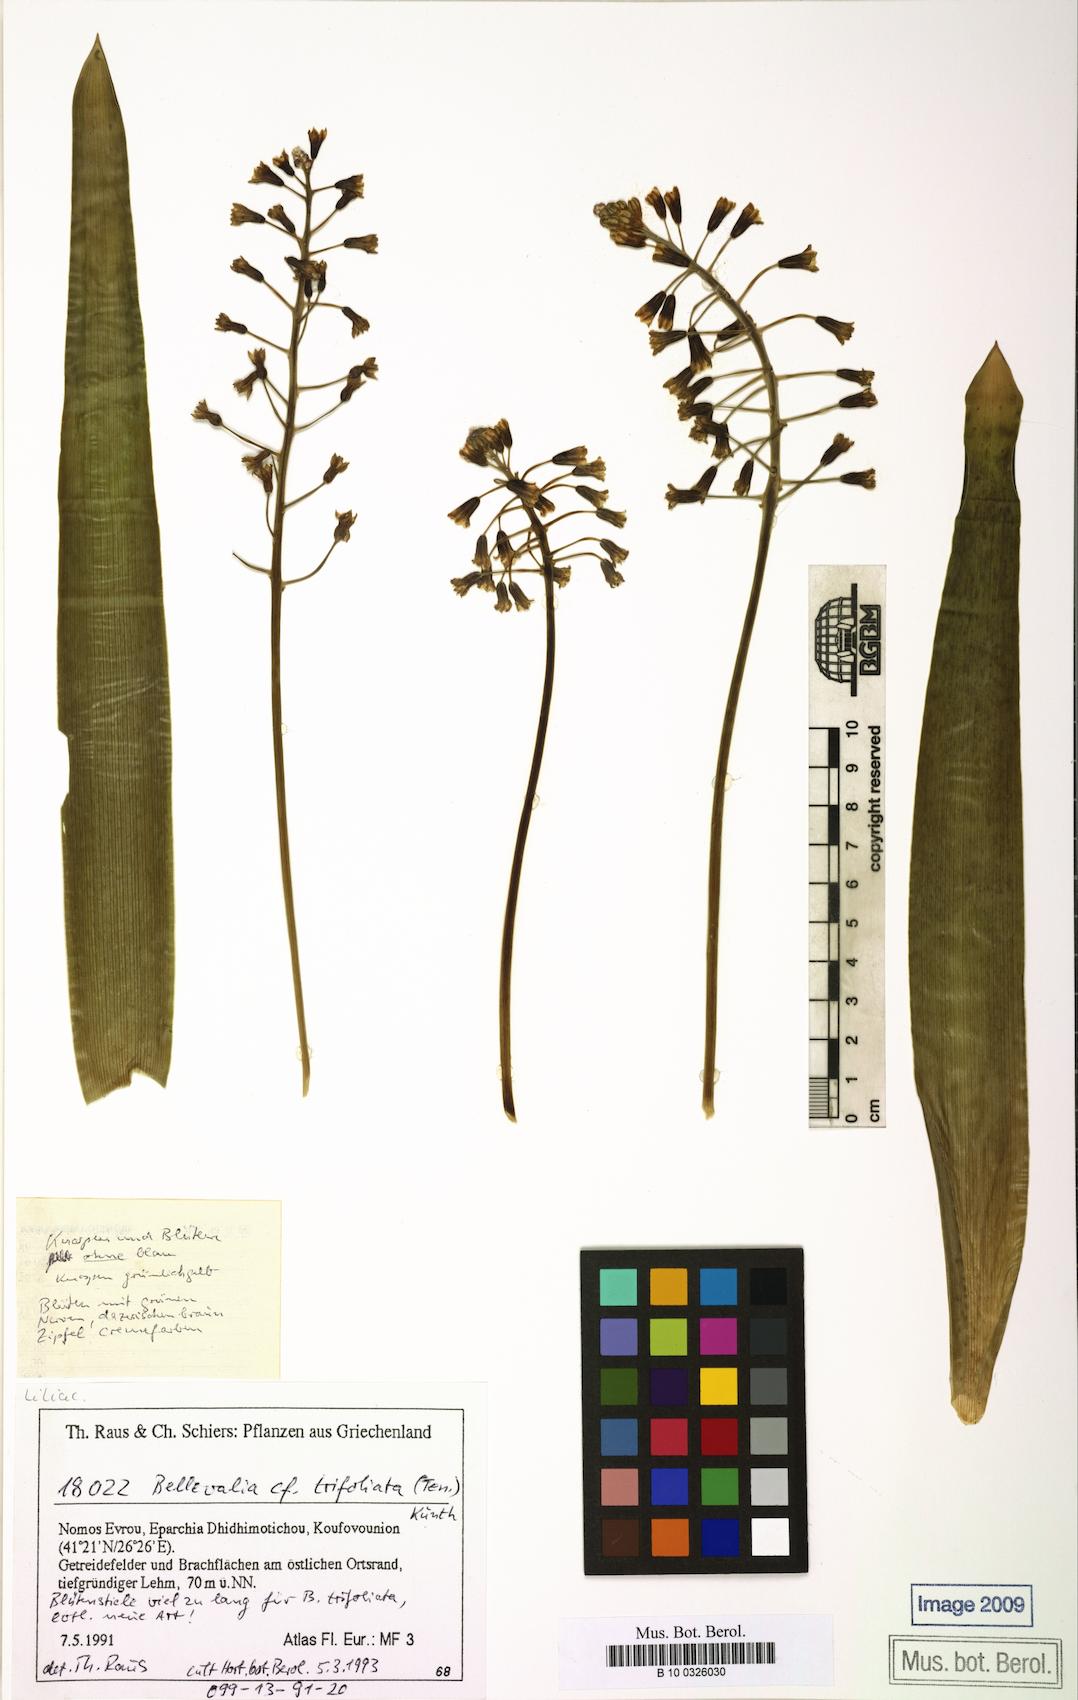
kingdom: Plantae
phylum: Tracheophyta
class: Liliopsida
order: Asparagales
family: Asparagaceae
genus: Bellevalia
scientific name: Bellevalia trifoliata
